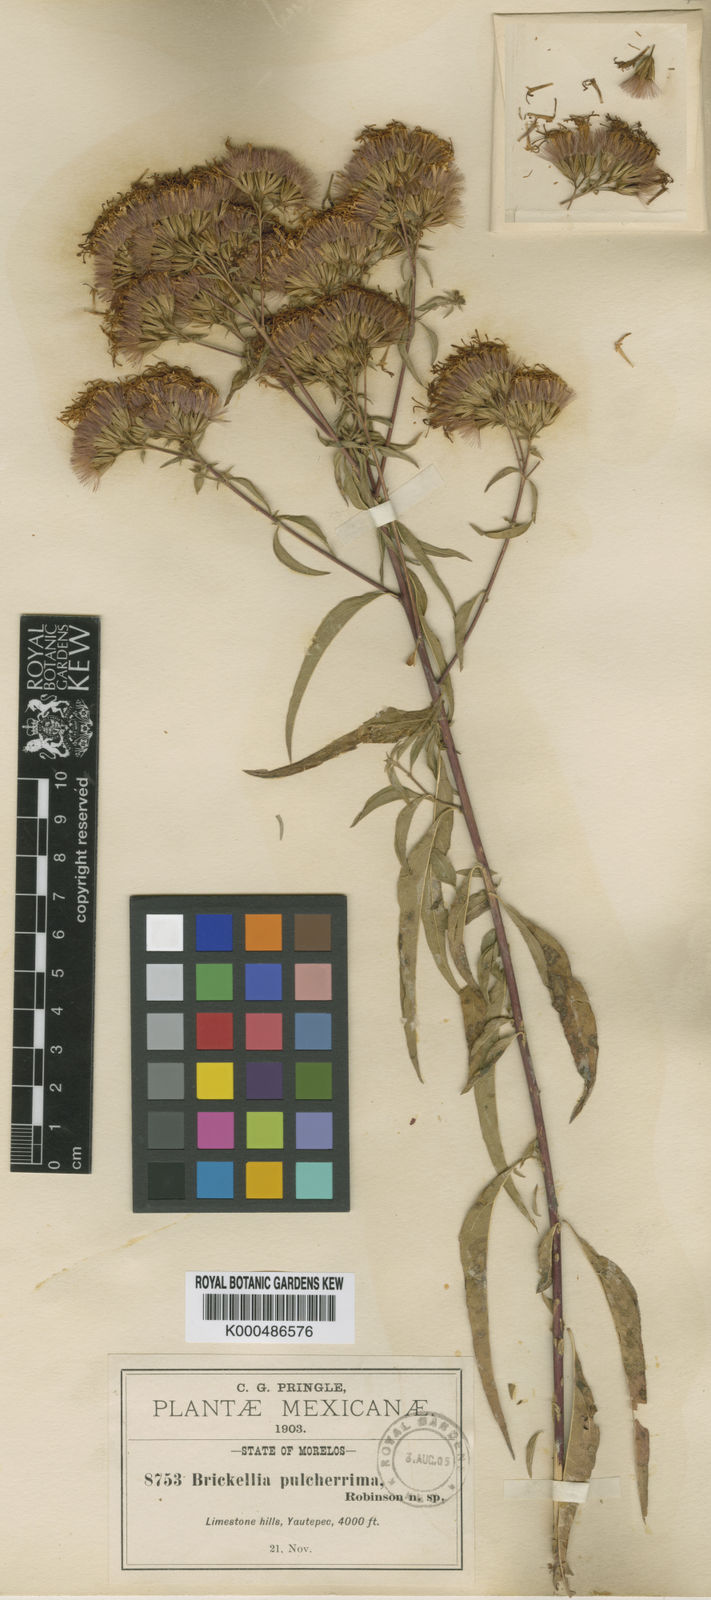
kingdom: Plantae
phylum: Tracheophyta
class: Magnoliopsida
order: Asterales
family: Asteraceae
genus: Steviopsis
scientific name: Steviopsis vigintiseta
